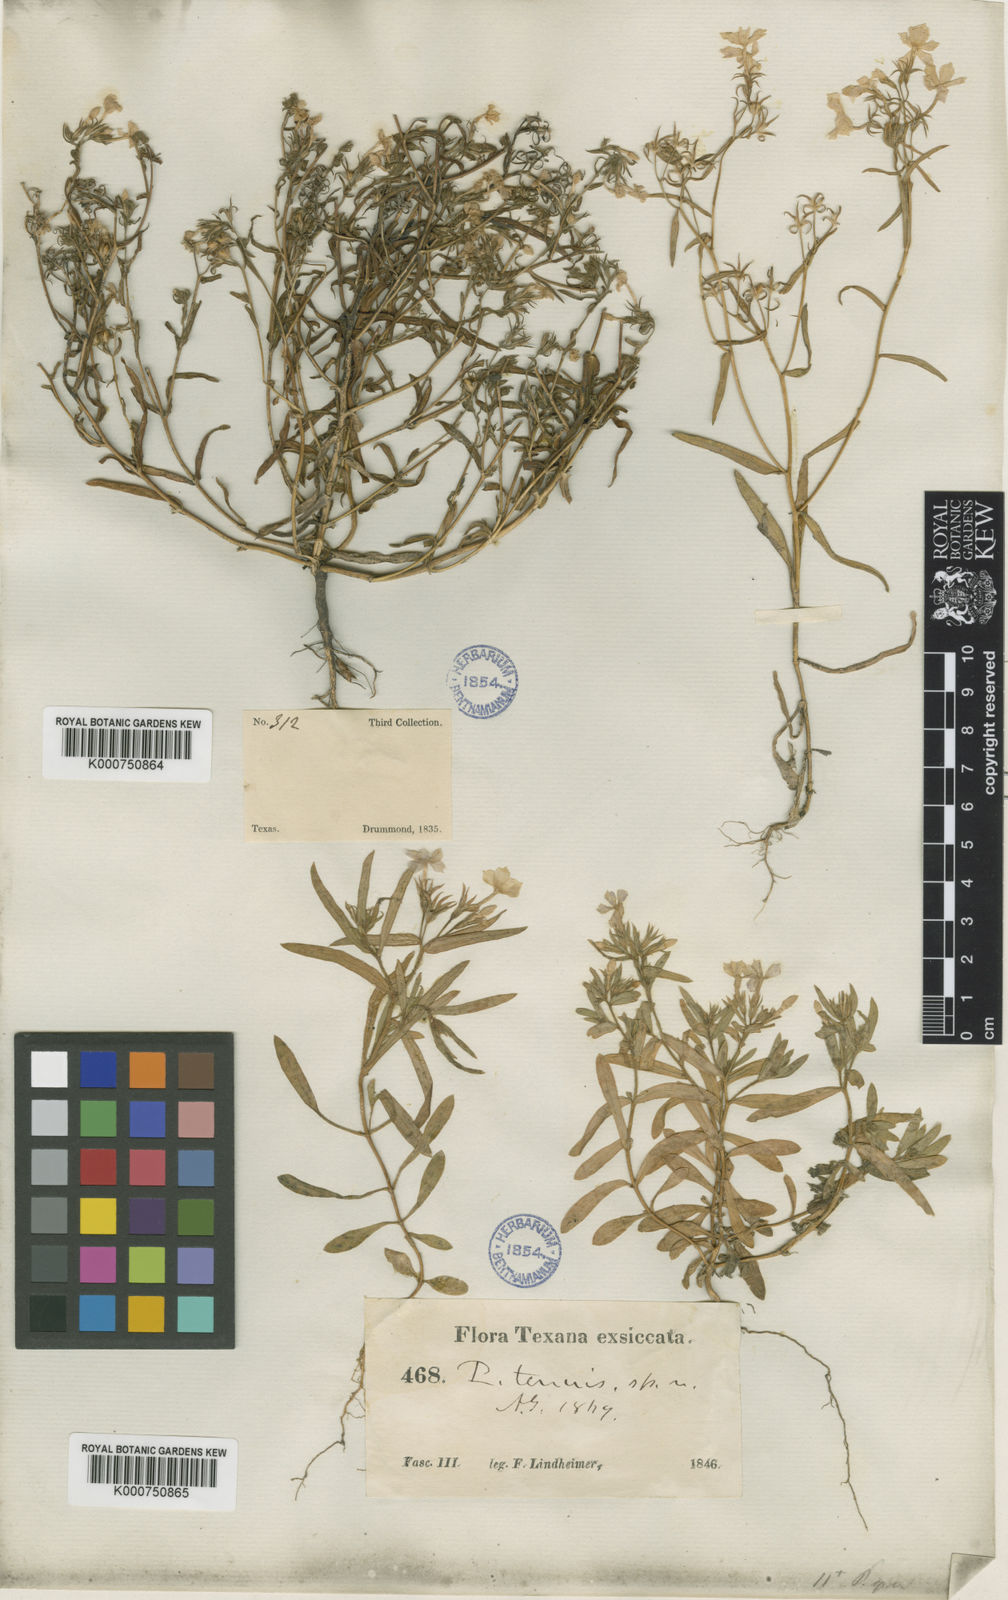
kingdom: Plantae
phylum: Tracheophyta
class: Magnoliopsida
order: Ericales
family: Polemoniaceae
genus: Phlox
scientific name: Phlox drummondii
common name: Drummond's phlox
